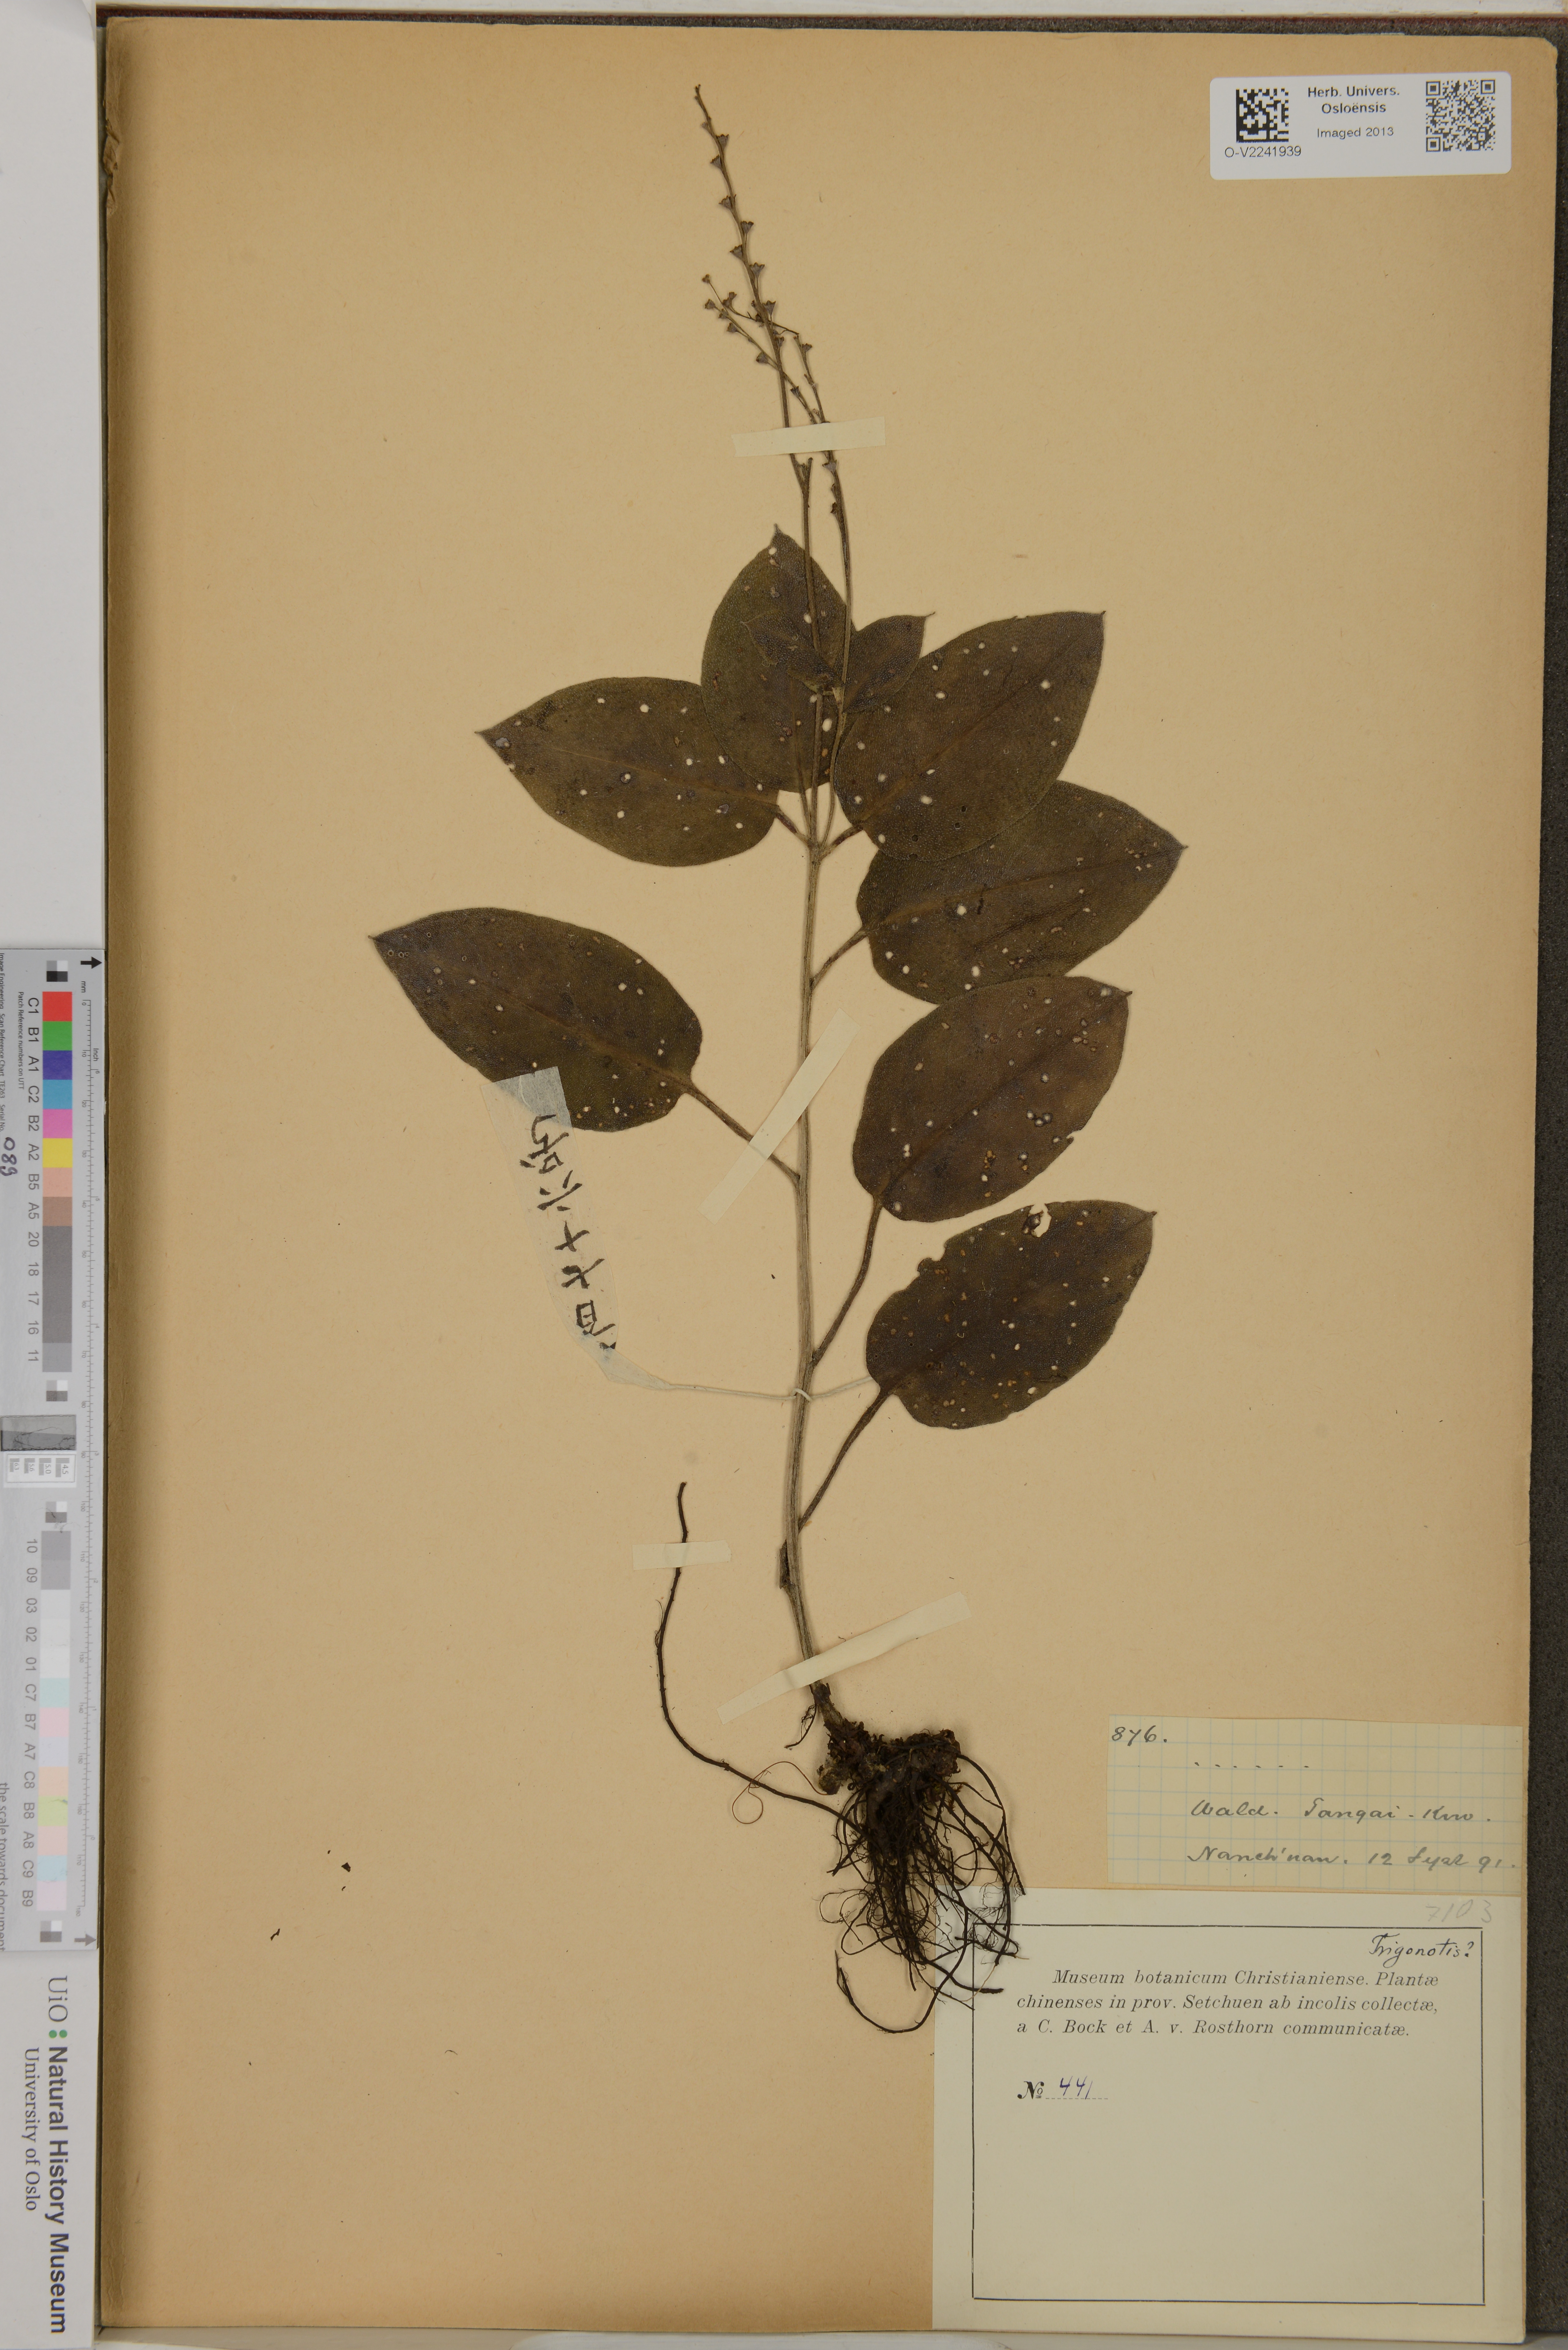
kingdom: Plantae
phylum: Tracheophyta
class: Magnoliopsida
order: Boraginales
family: Boraginaceae
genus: Trigonotis
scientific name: Trigonotis
